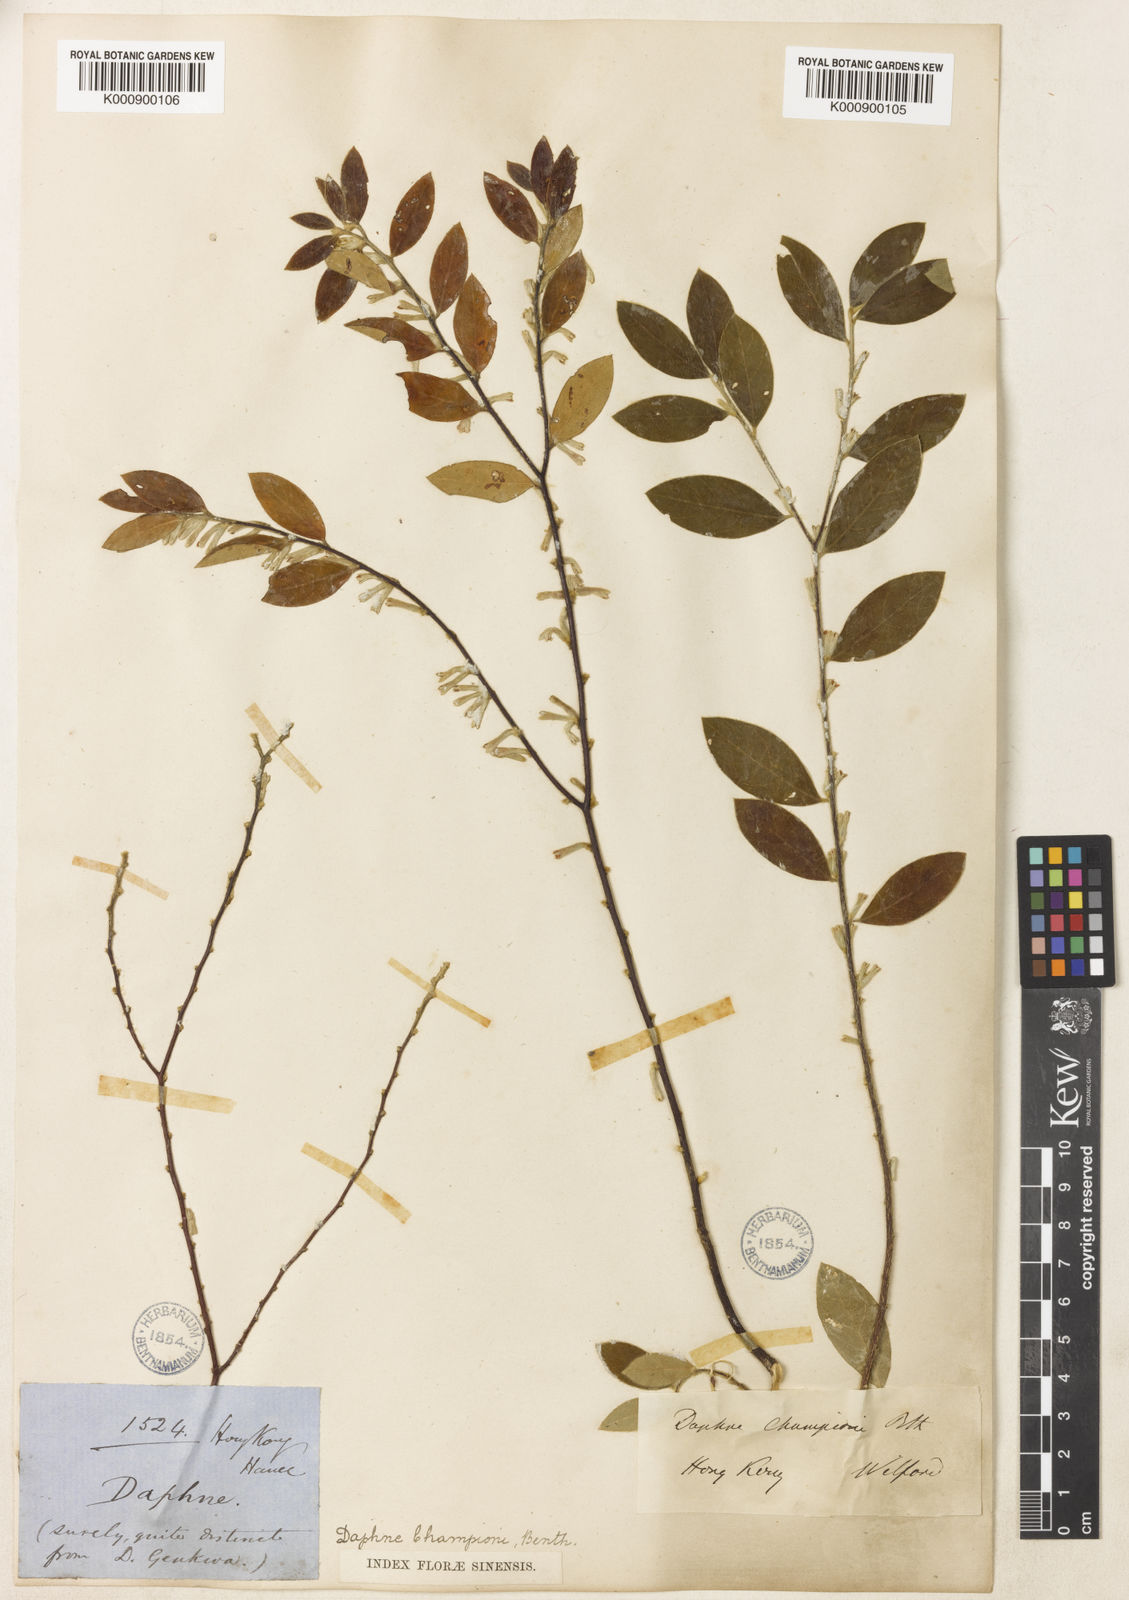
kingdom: Plantae
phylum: Tracheophyta
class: Magnoliopsida
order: Malvales
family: Thymelaeaceae
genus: Daphne
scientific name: Daphne championii
